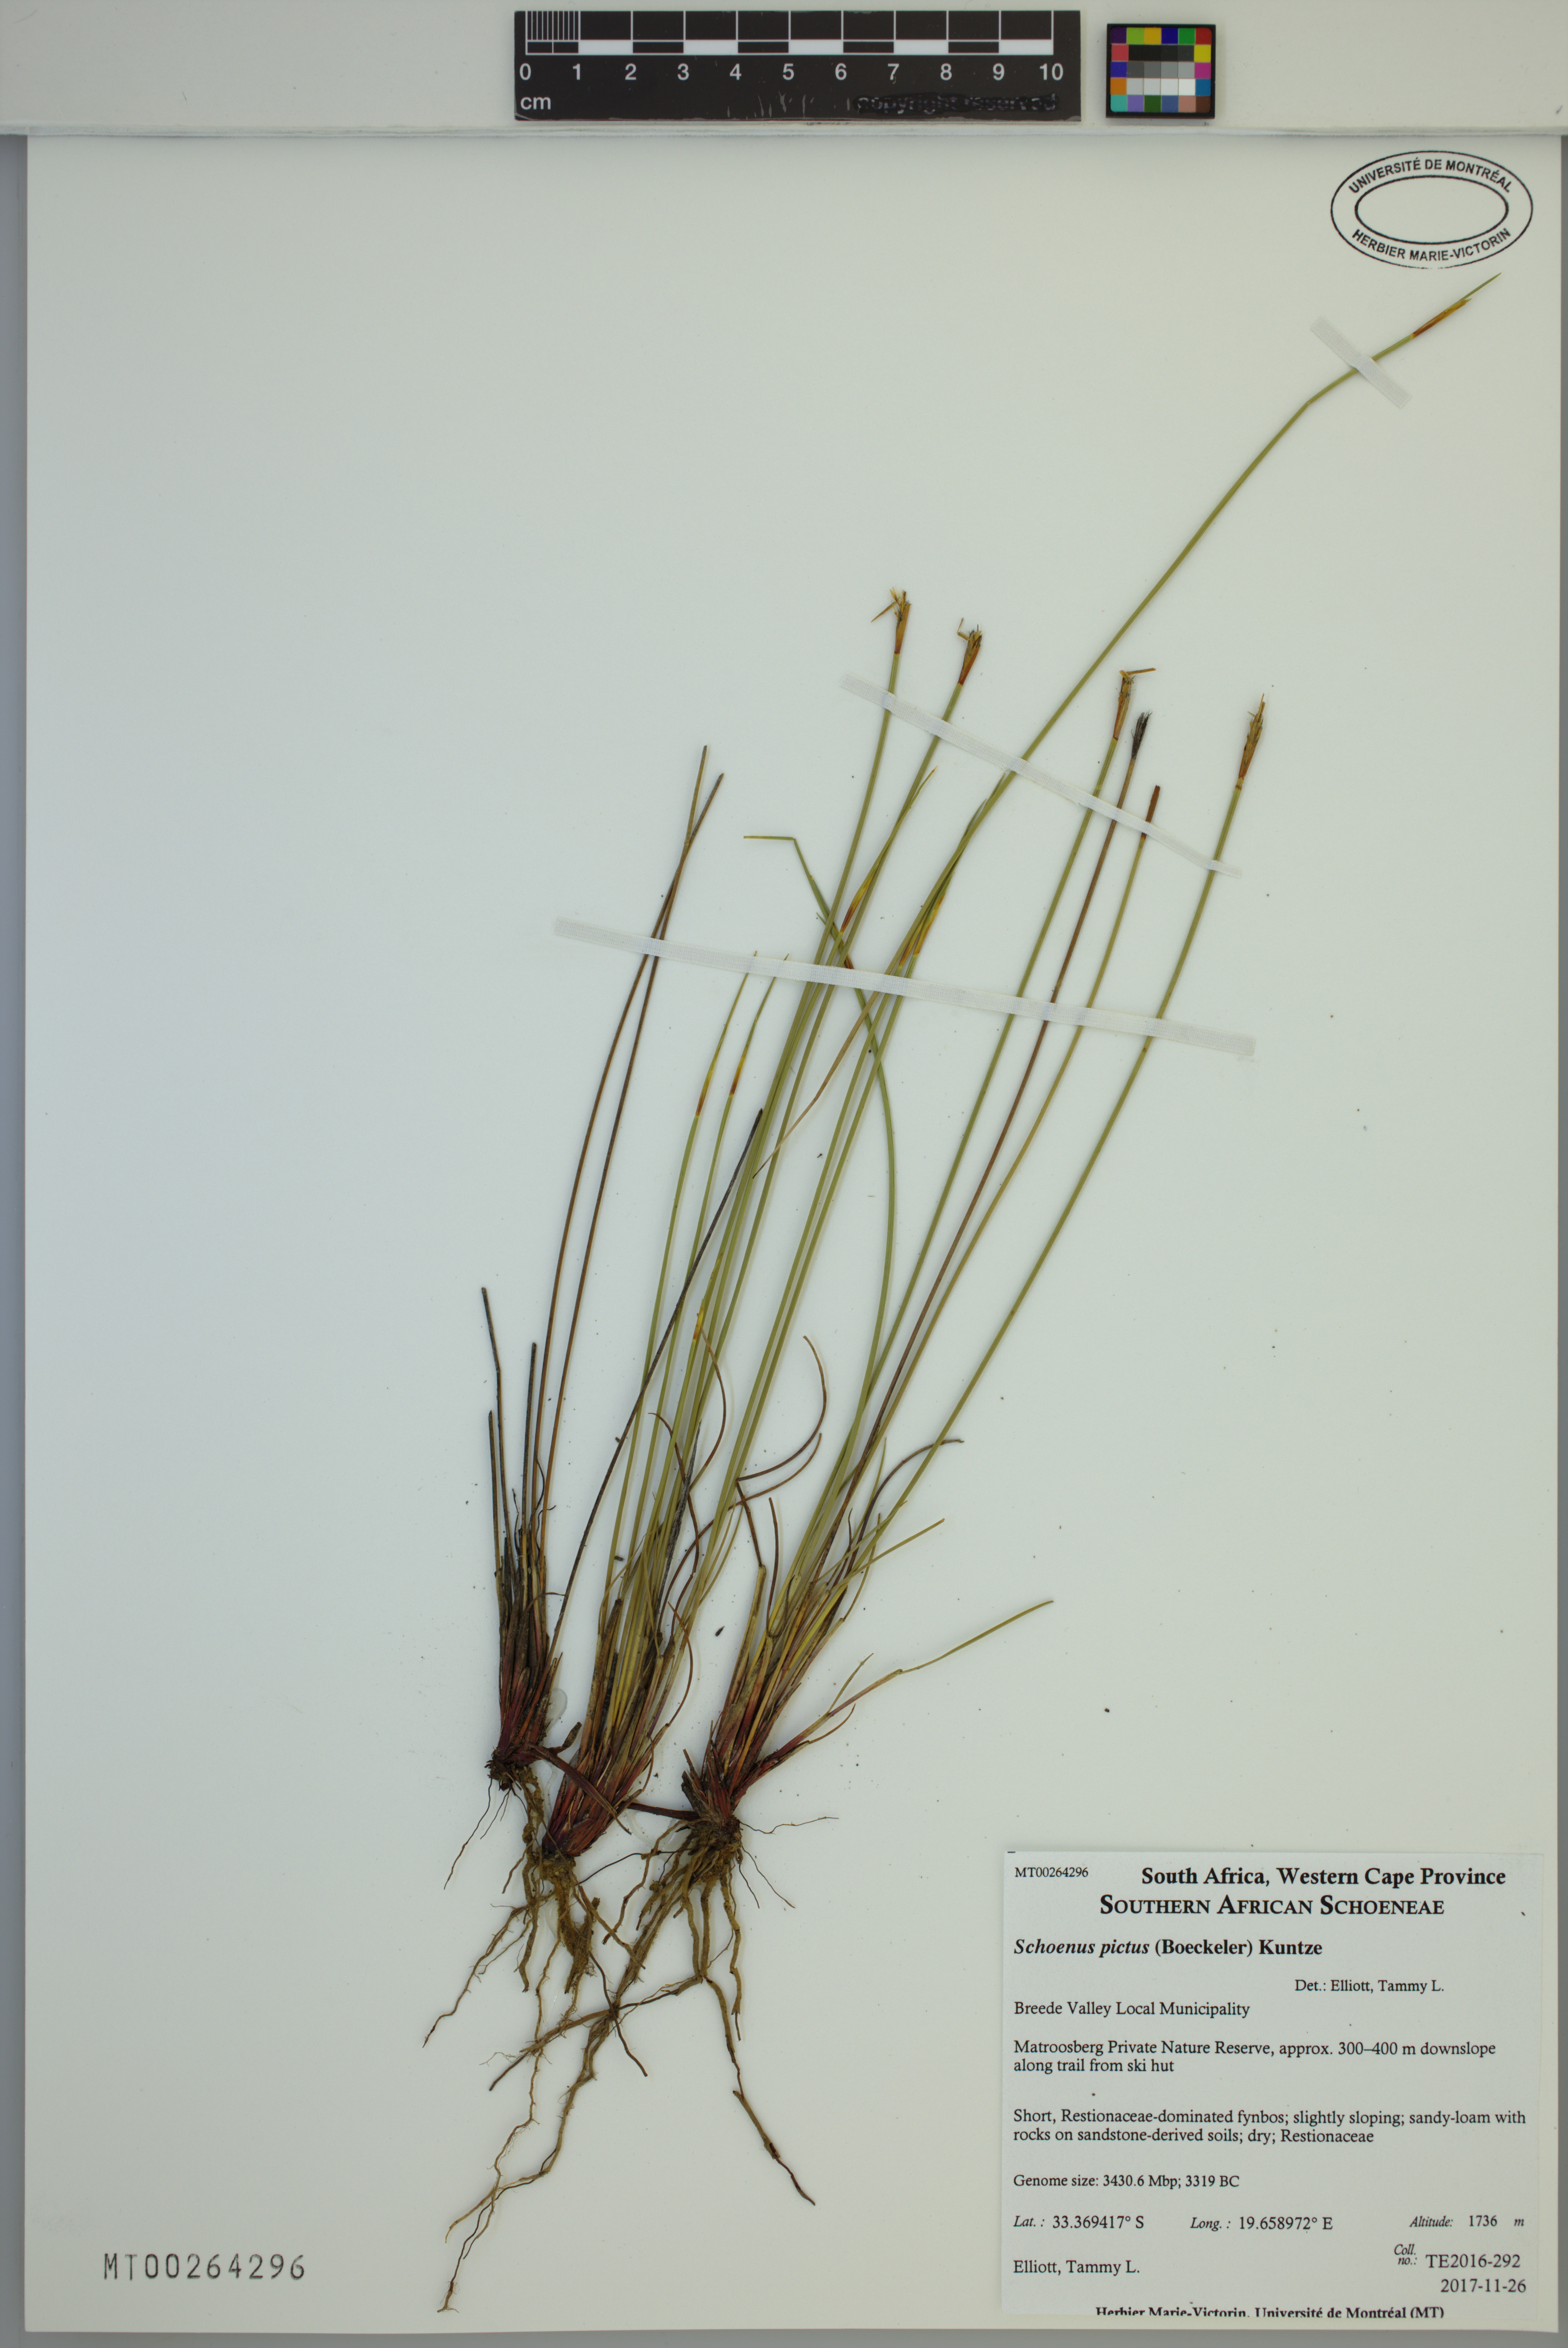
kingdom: Plantae
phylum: Tracheophyta
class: Liliopsida
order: Poales
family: Cyperaceae
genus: Schoenus
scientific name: Schoenus pictus
